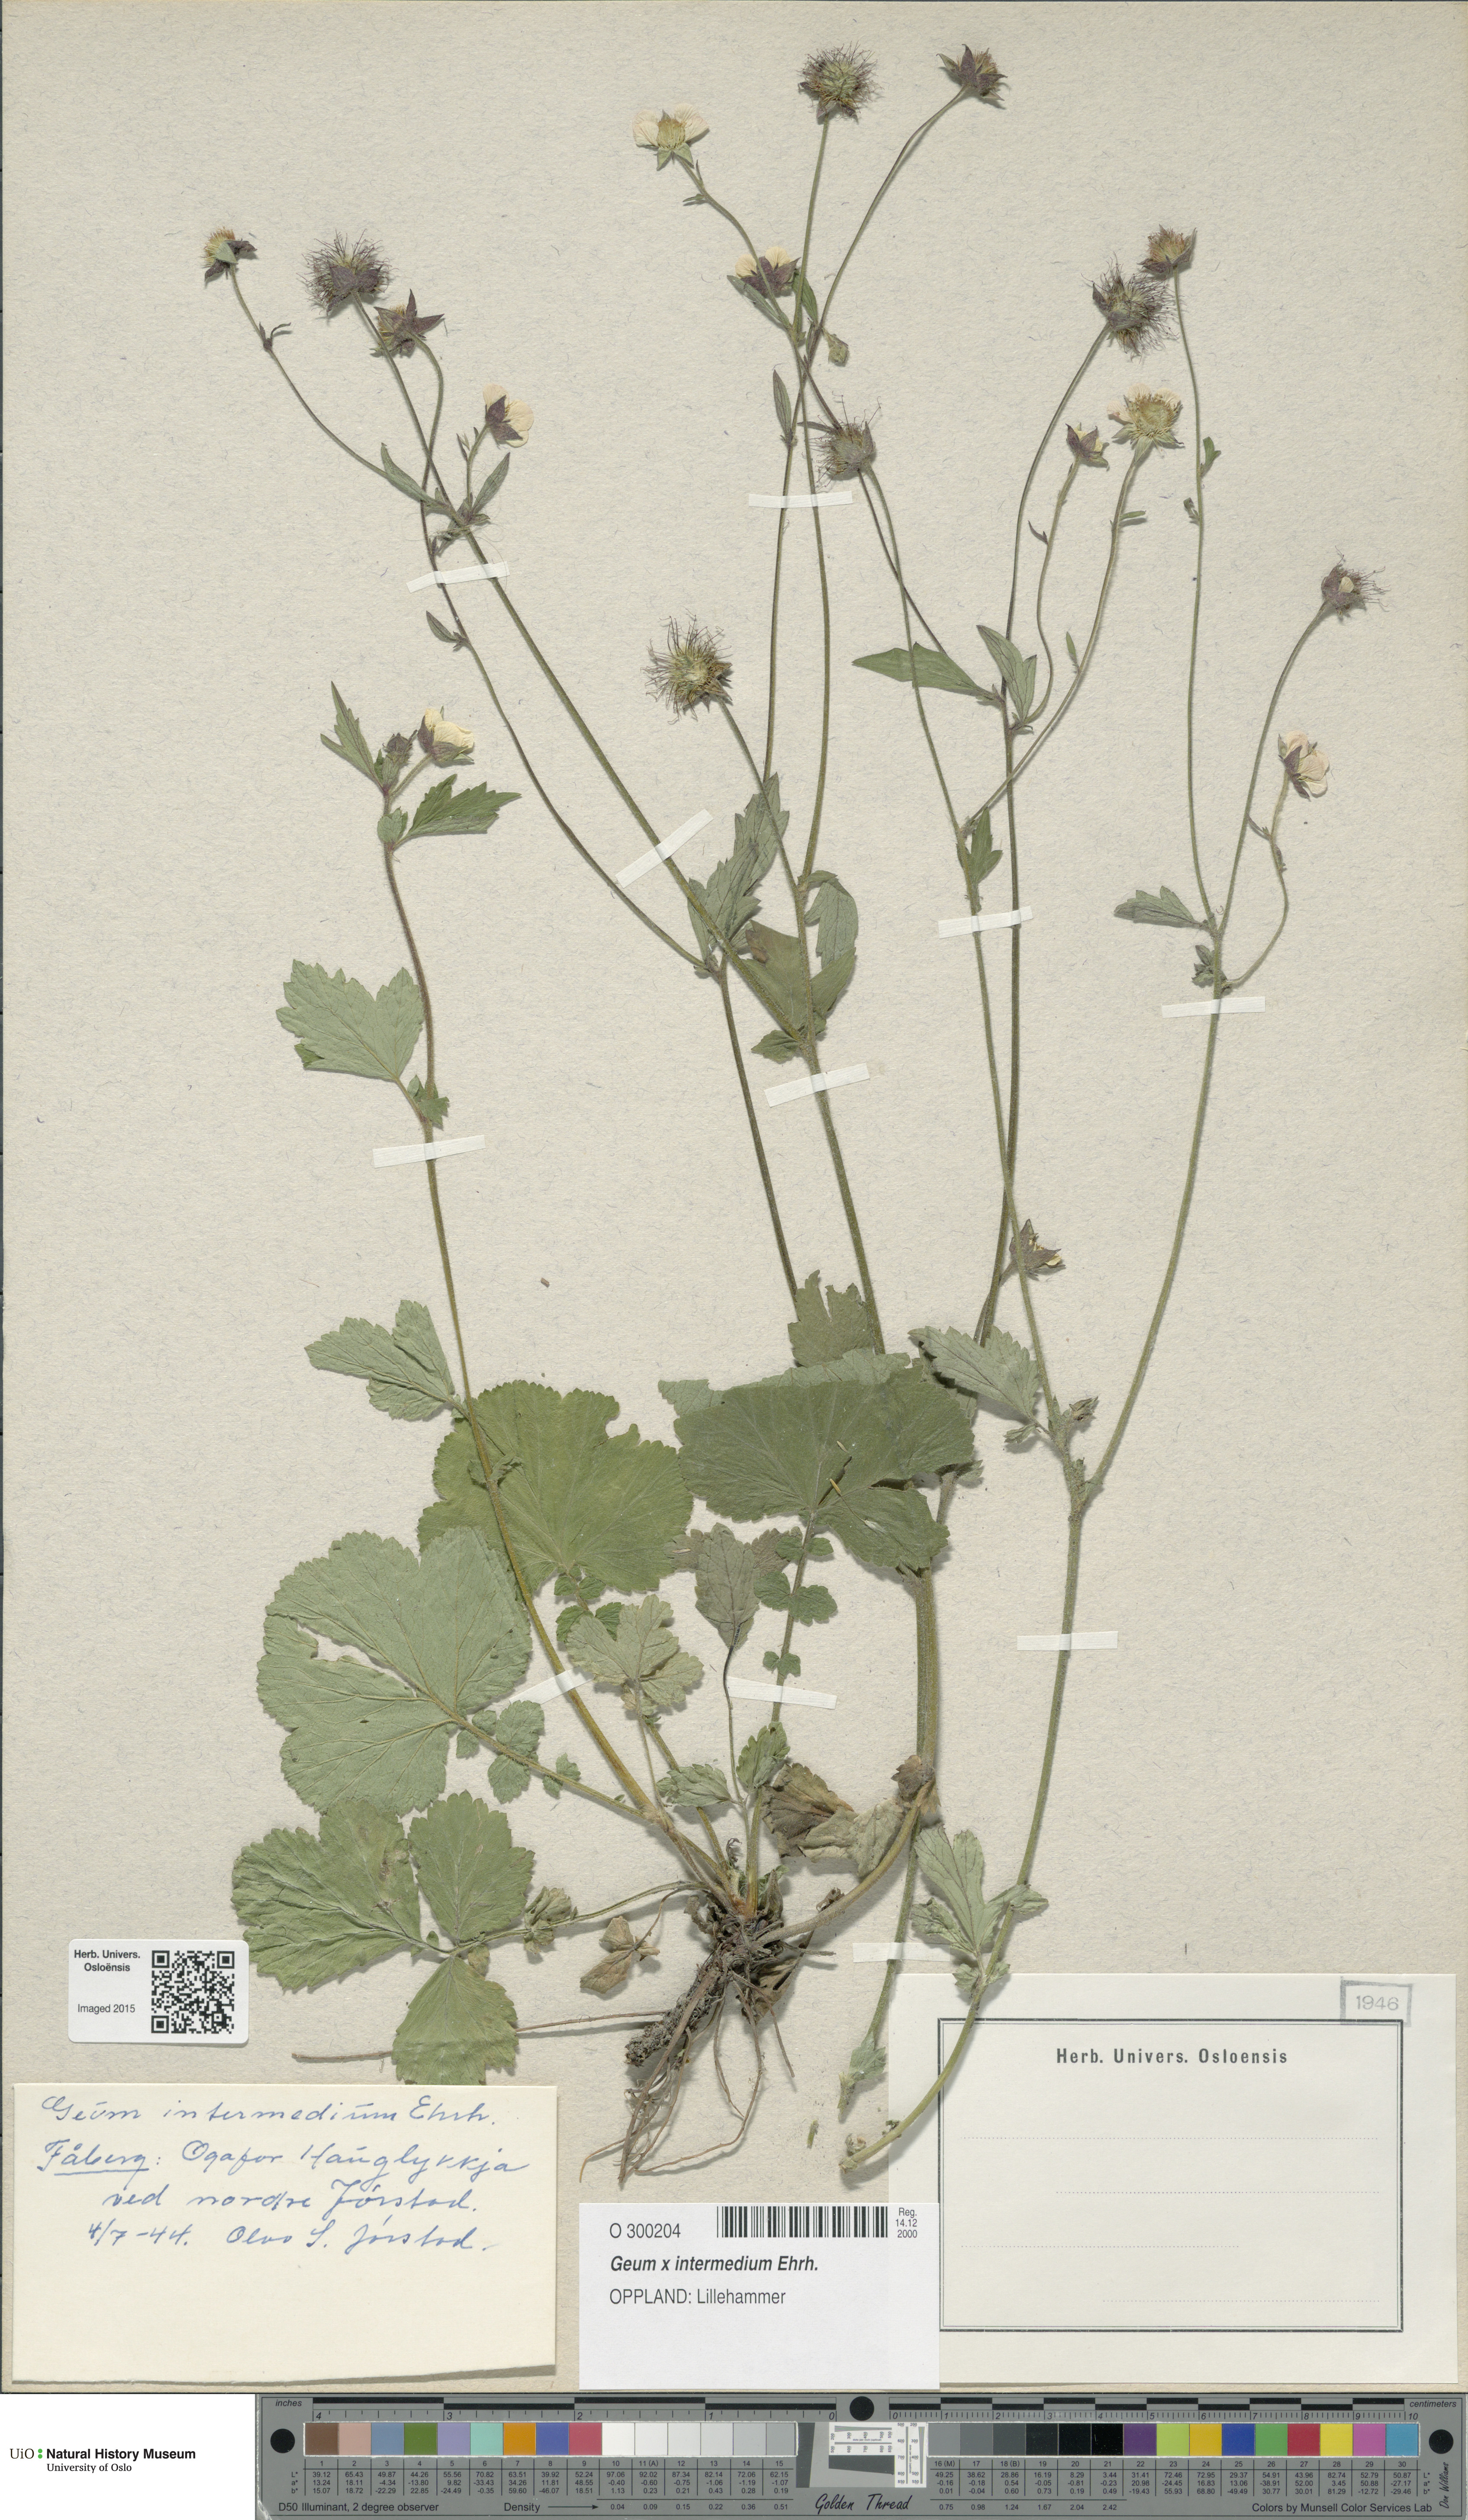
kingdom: Plantae
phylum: Tracheophyta
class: Magnoliopsida
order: Rosales
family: Rosaceae
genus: Geum
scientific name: Geum intermedium
